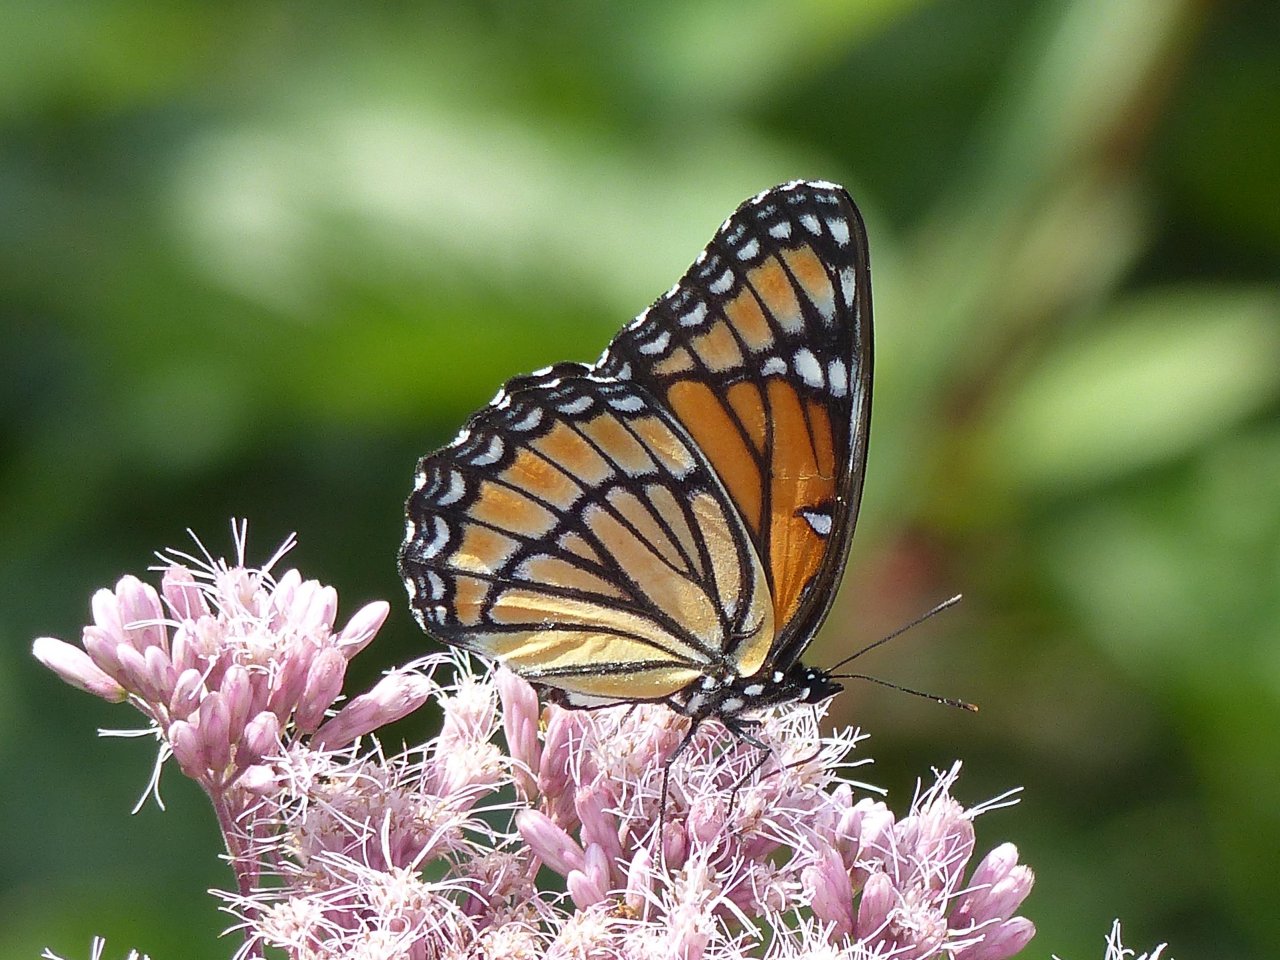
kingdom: Animalia
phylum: Arthropoda
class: Insecta
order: Lepidoptera
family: Nymphalidae
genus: Limenitis
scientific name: Limenitis archippus
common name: Viceroy
